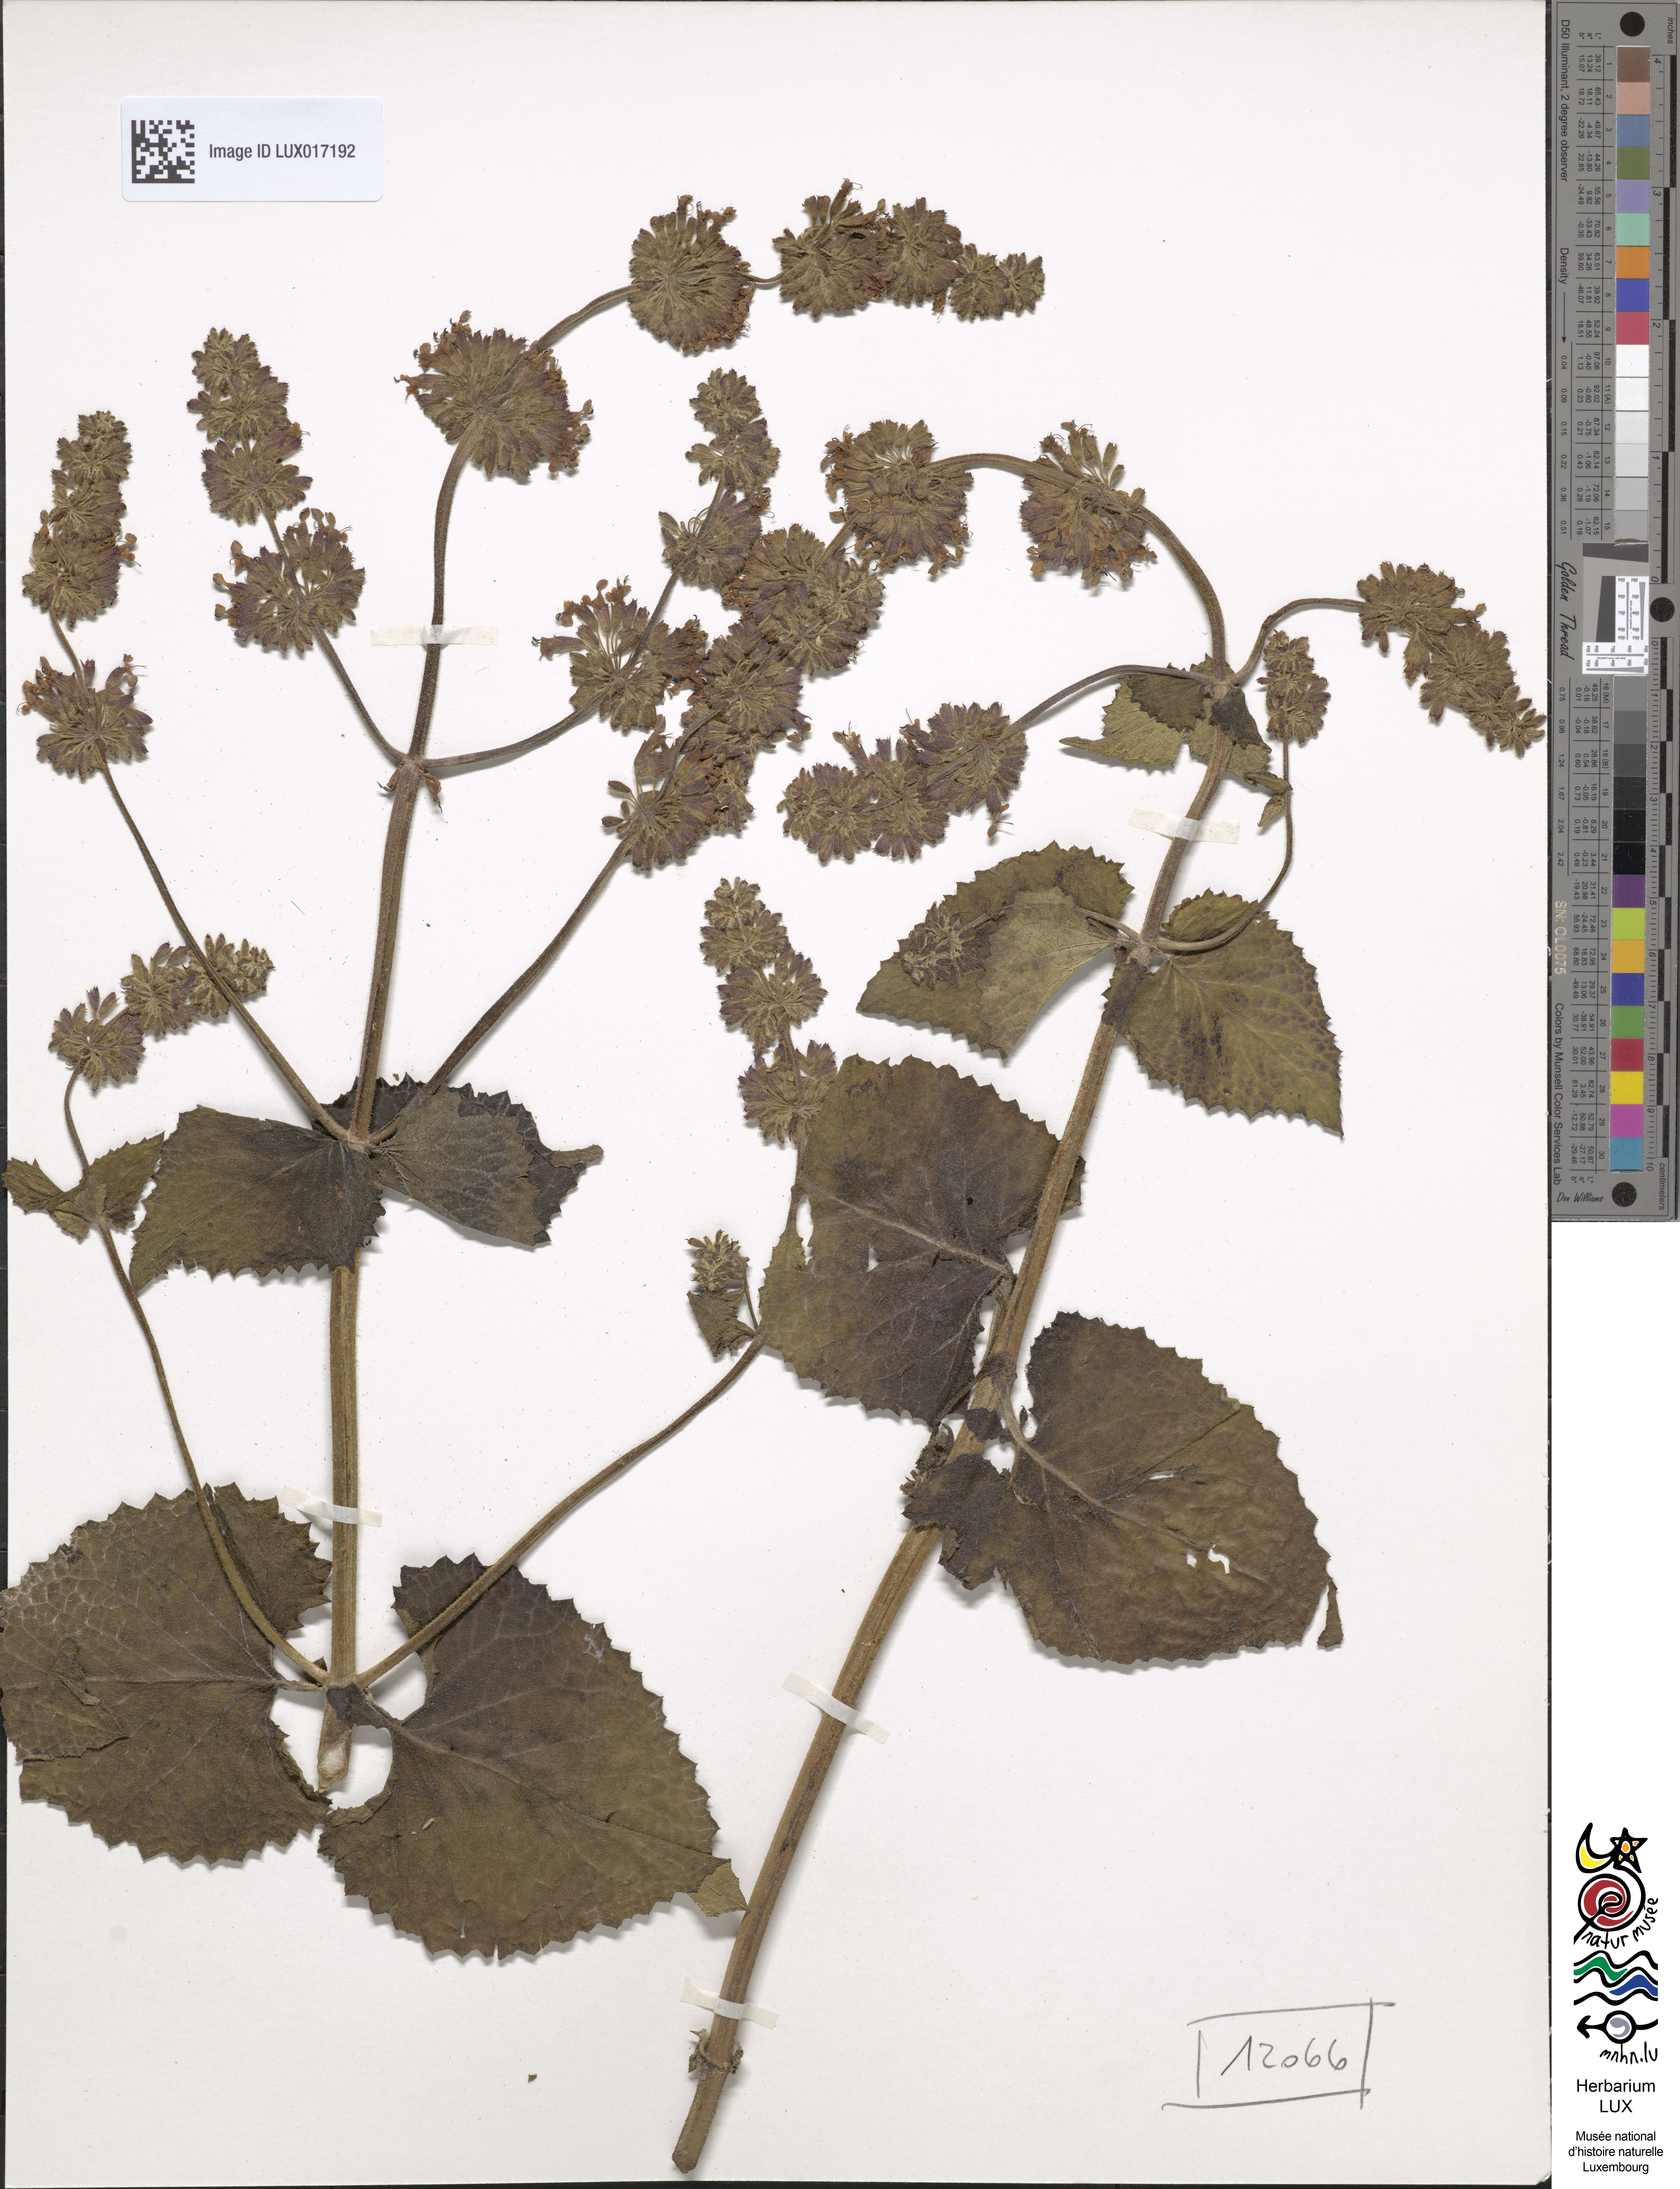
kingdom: Plantae
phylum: Tracheophyta
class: Magnoliopsida
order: Lamiales
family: Lamiaceae
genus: Salvia
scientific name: Salvia verticillata
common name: Whorled clary
